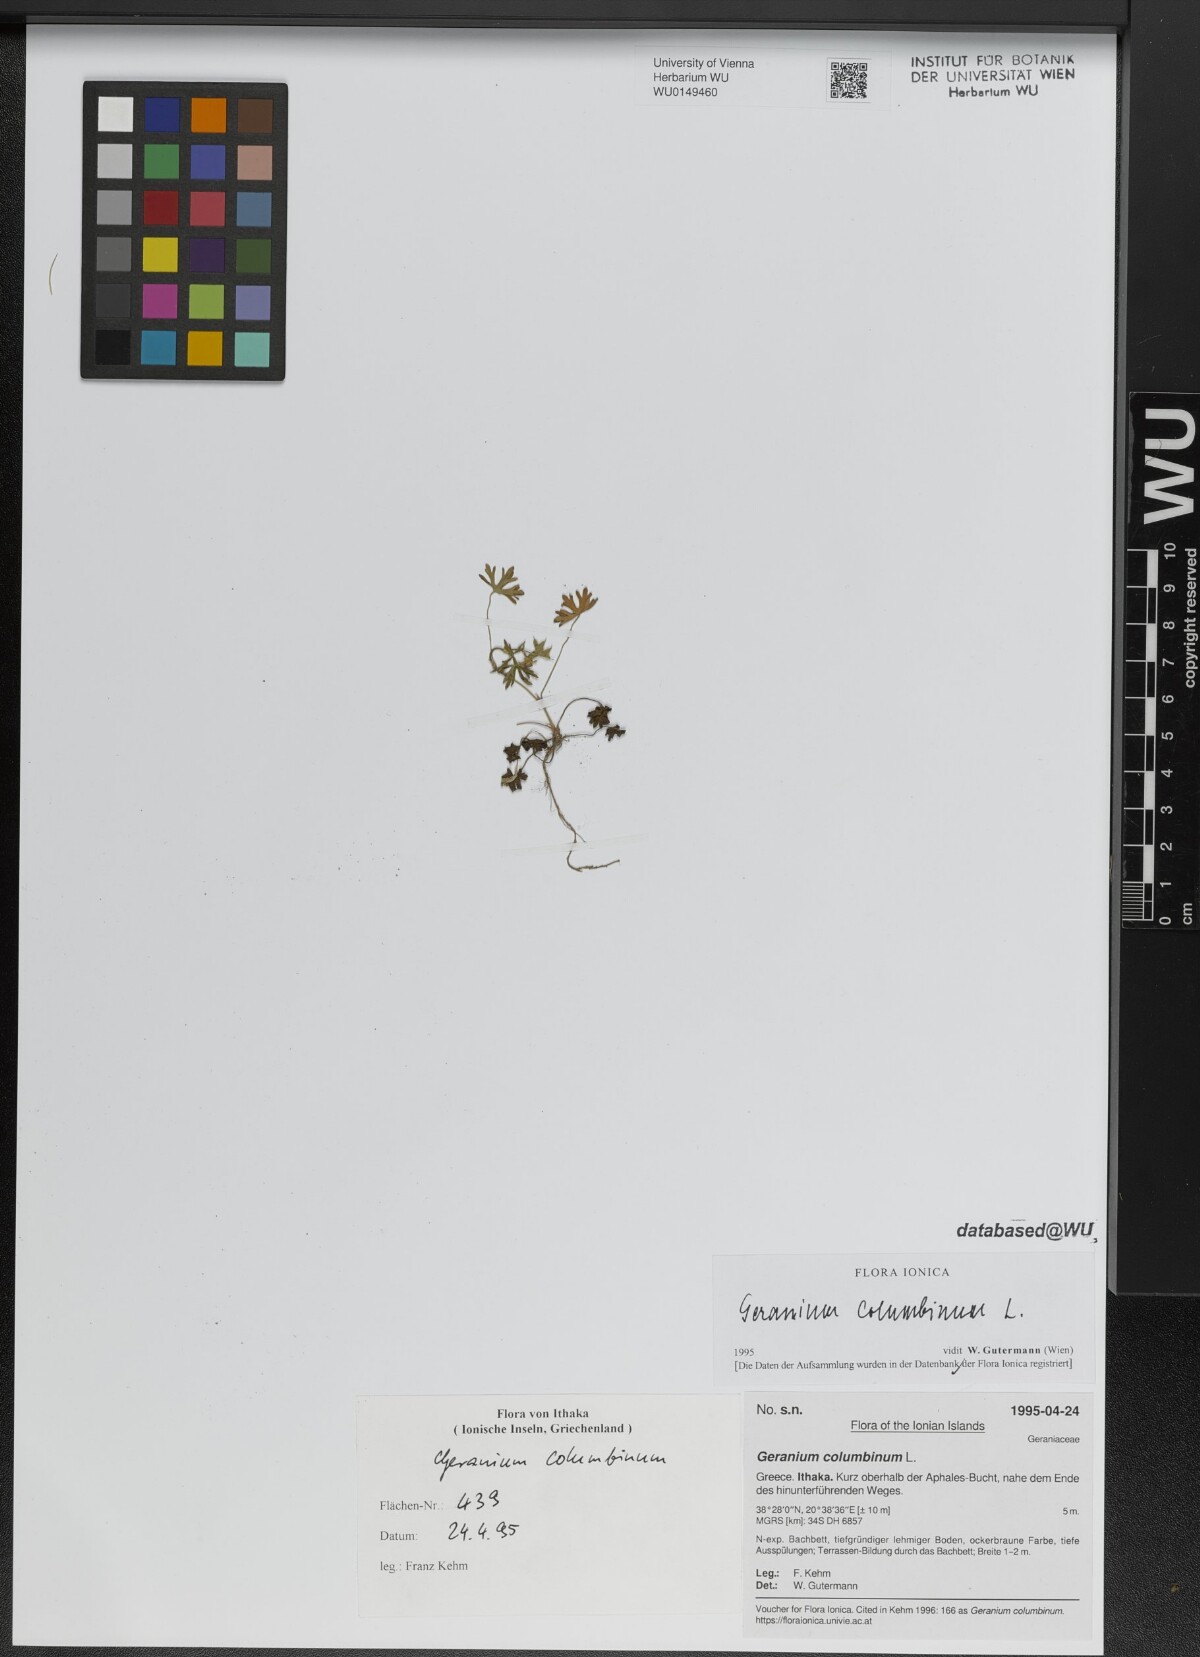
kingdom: Plantae
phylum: Tracheophyta
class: Magnoliopsida
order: Geraniales
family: Geraniaceae
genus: Geranium
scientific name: Geranium columbinum
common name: Long-stalked crane's-bill
